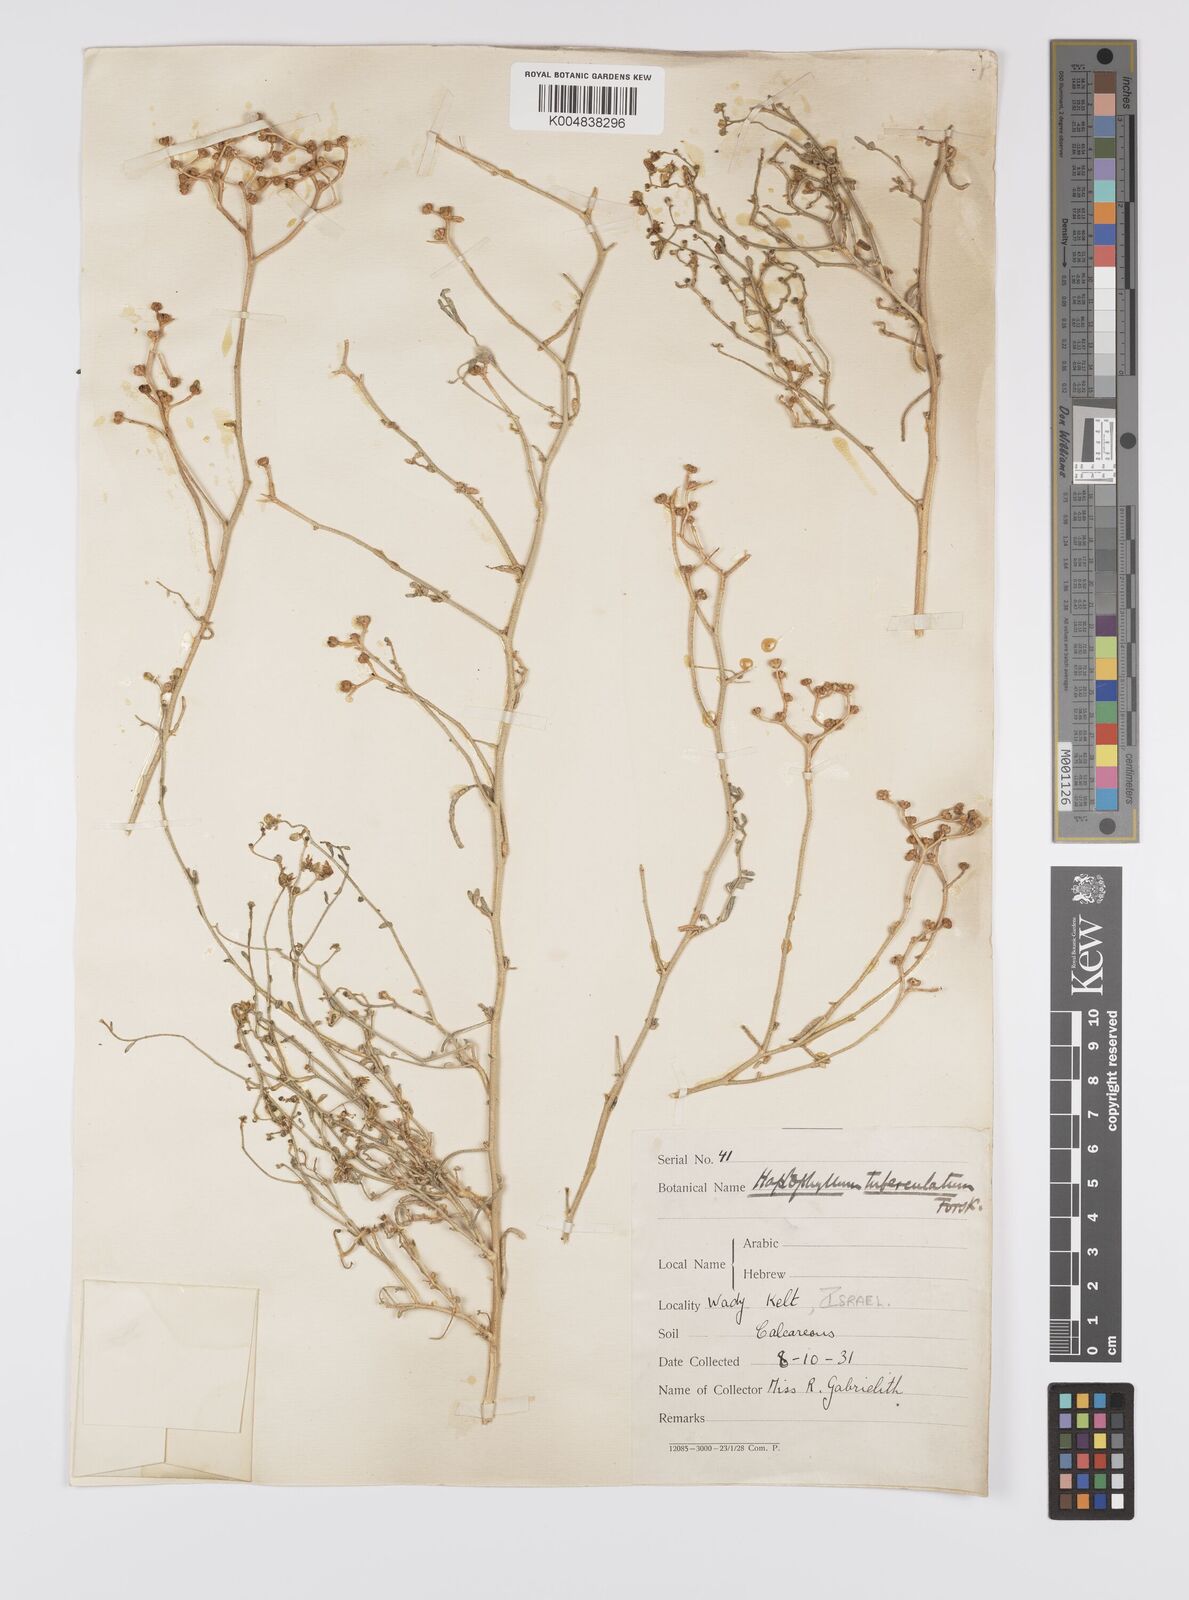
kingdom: Plantae
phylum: Tracheophyta
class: Magnoliopsida
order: Sapindales
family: Rutaceae
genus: Haplophyllum
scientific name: Haplophyllum tuberculatum
